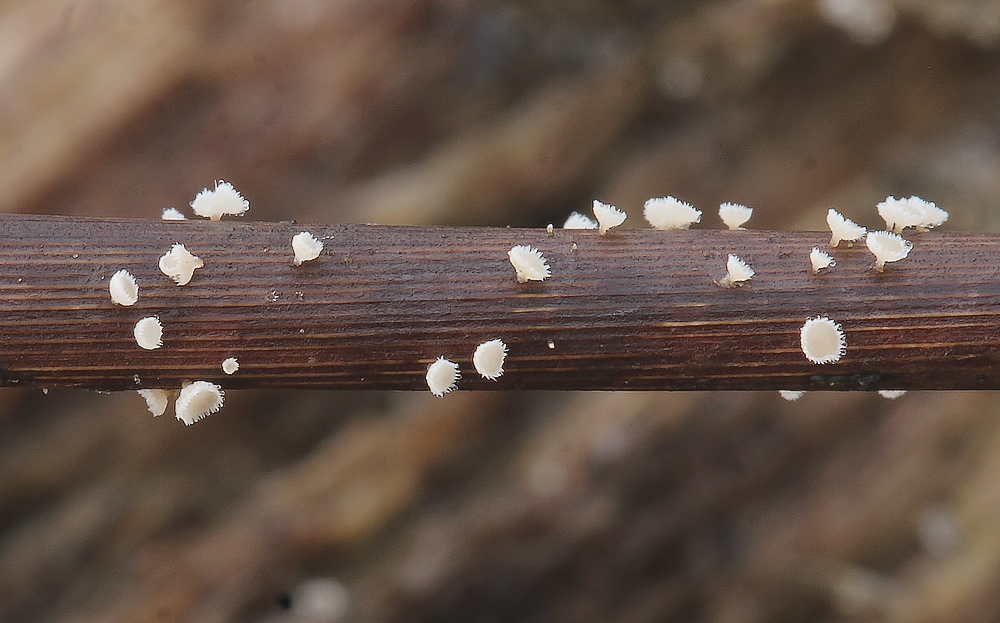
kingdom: Fungi
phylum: Ascomycota
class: Leotiomycetes
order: Helotiales
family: Lachnaceae
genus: Lachnum
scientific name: Lachnum apalum
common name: siv-frynseskive
